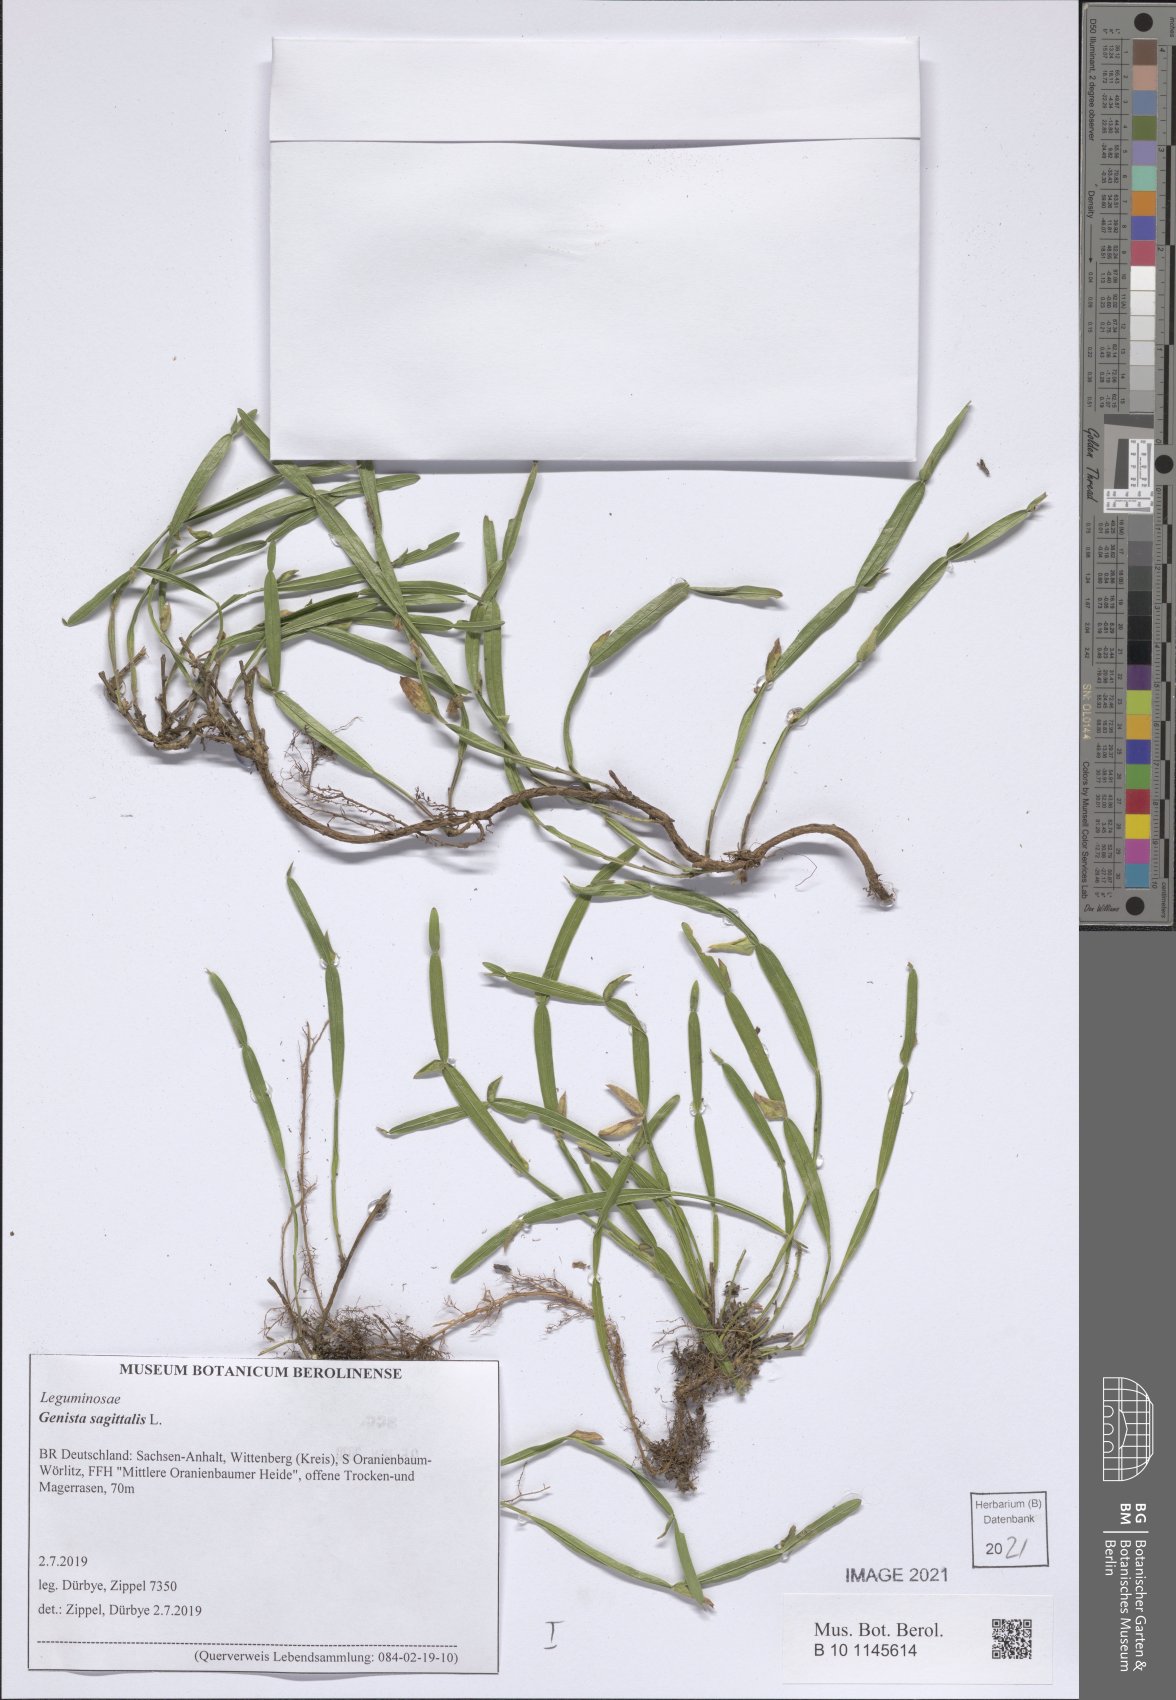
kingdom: Plantae
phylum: Tracheophyta
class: Magnoliopsida
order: Fabales
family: Fabaceae
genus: Genista
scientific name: Genista sagittalis
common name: Winged greenweed
